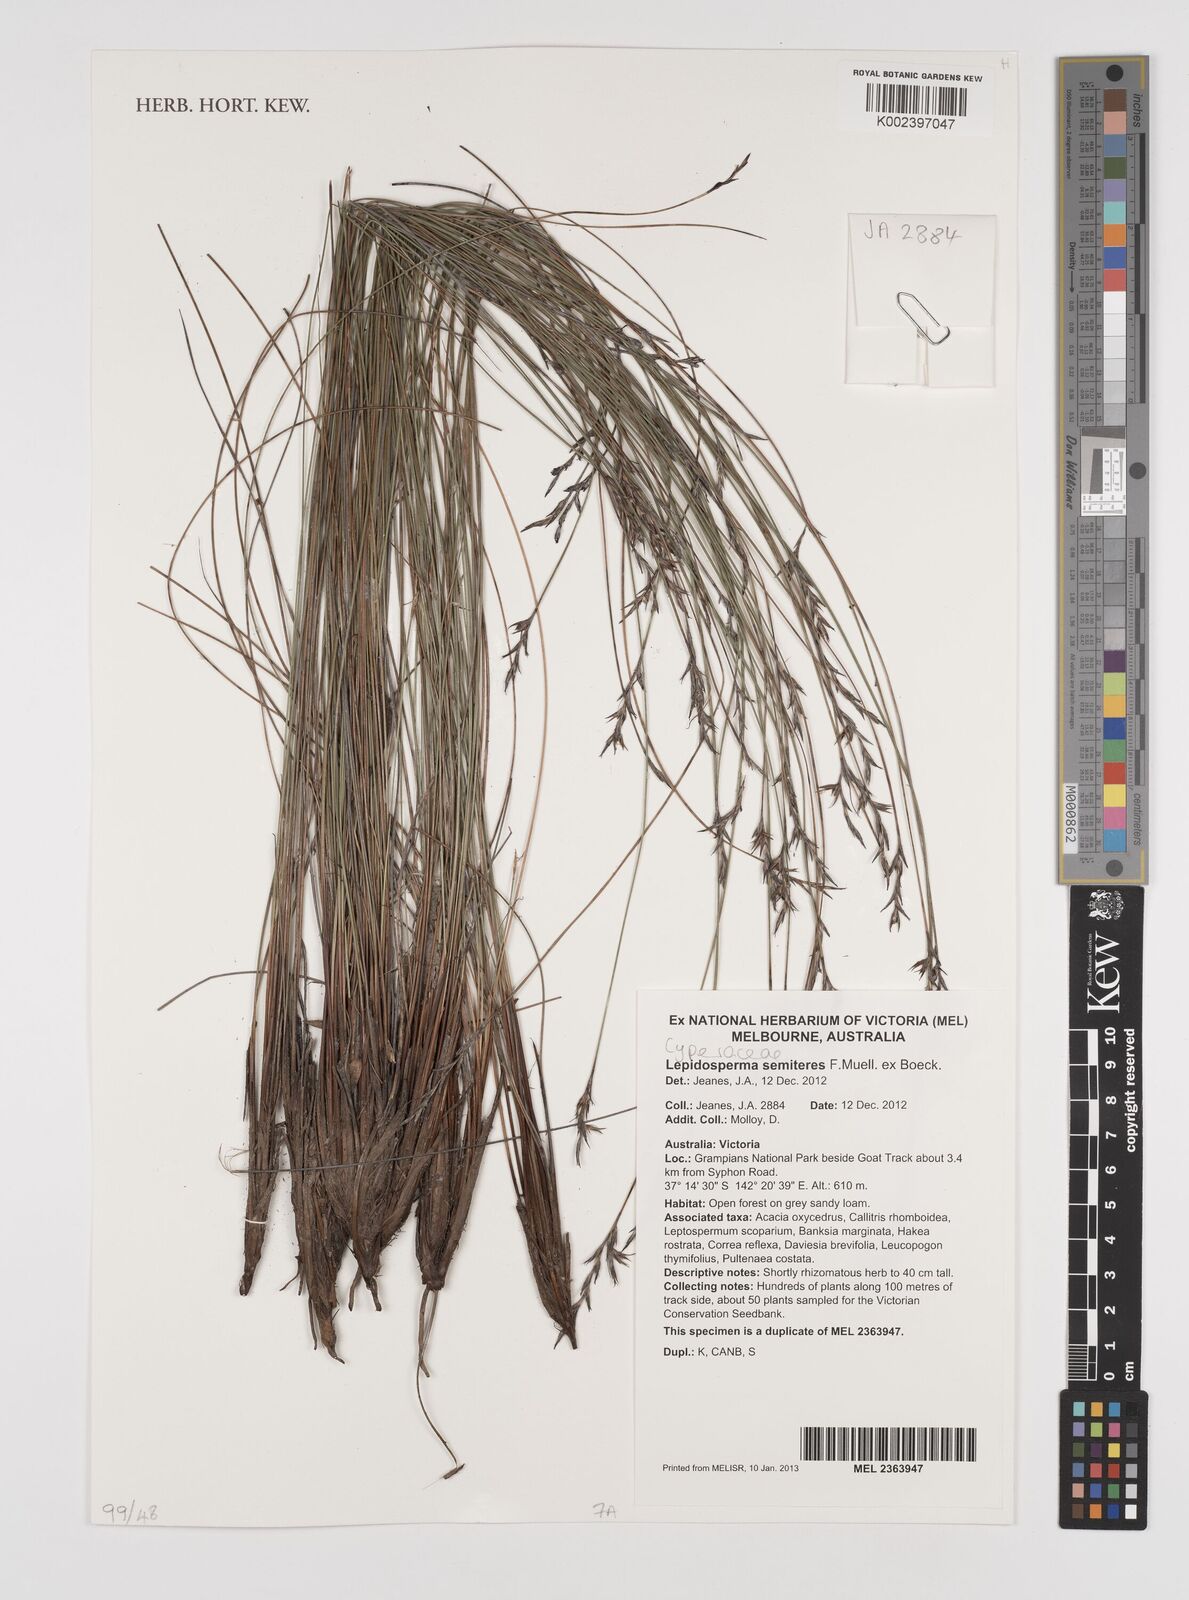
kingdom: Plantae
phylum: Tracheophyta
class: Liliopsida
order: Poales
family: Cyperaceae
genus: Lepidosperma
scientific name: Lepidosperma inops
